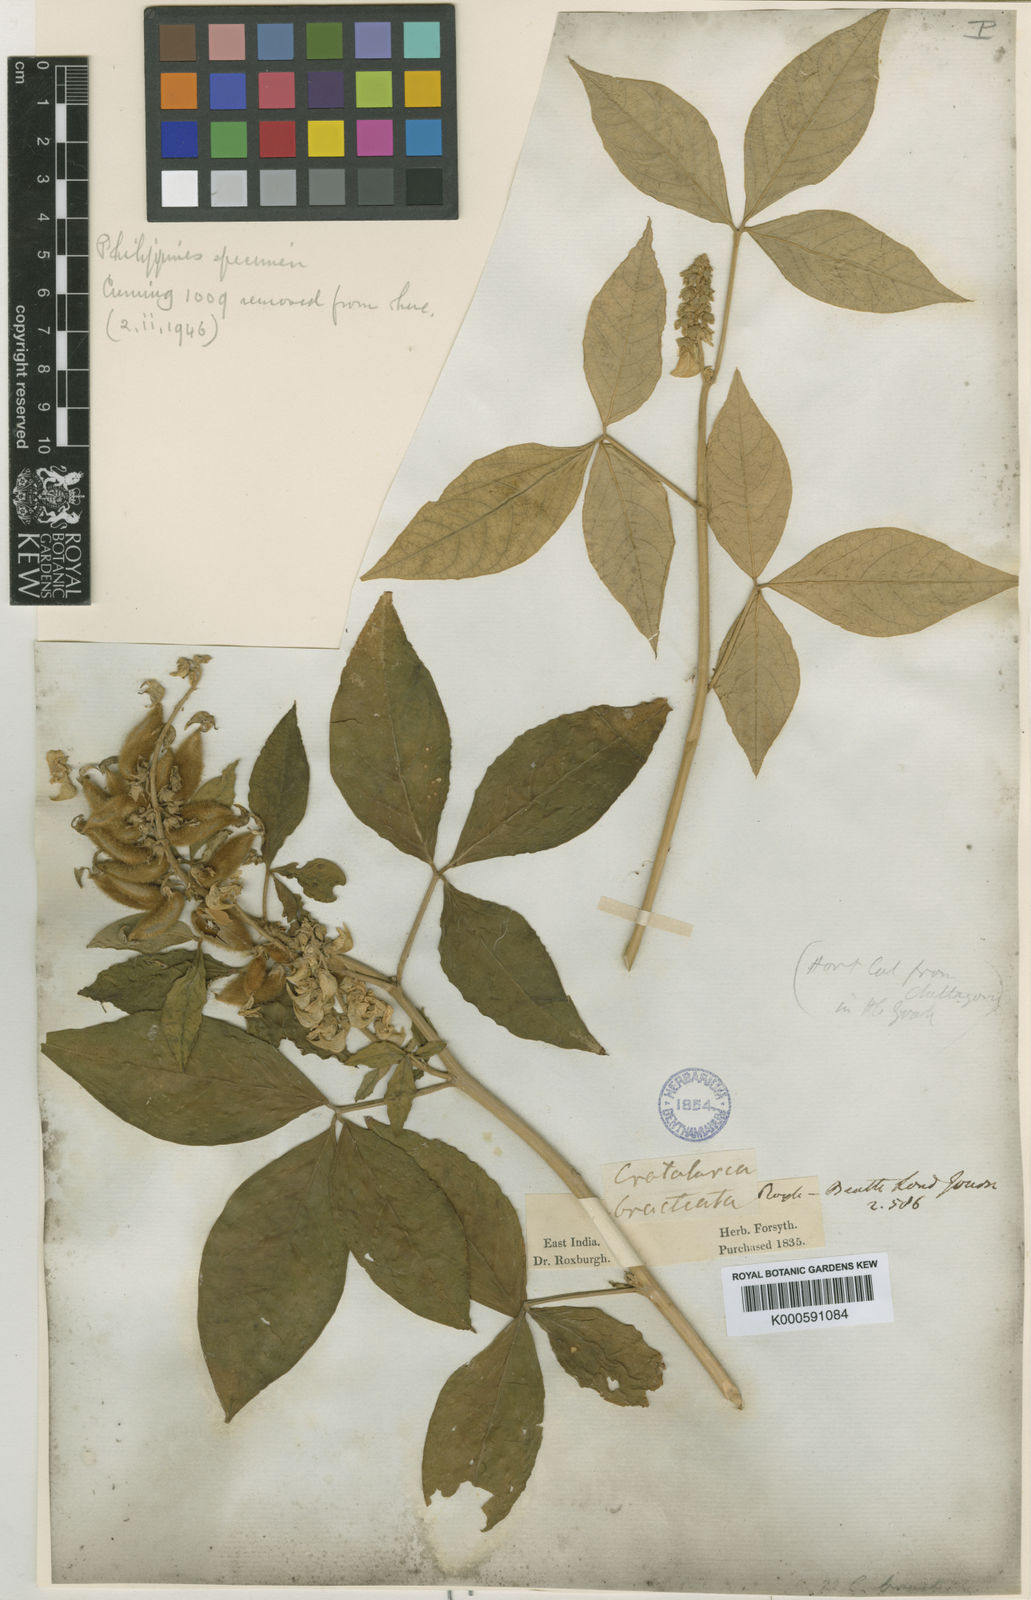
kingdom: Plantae
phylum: Tracheophyta
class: Magnoliopsida
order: Fabales
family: Fabaceae
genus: Crotalaria
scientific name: Crotalaria bracteata
